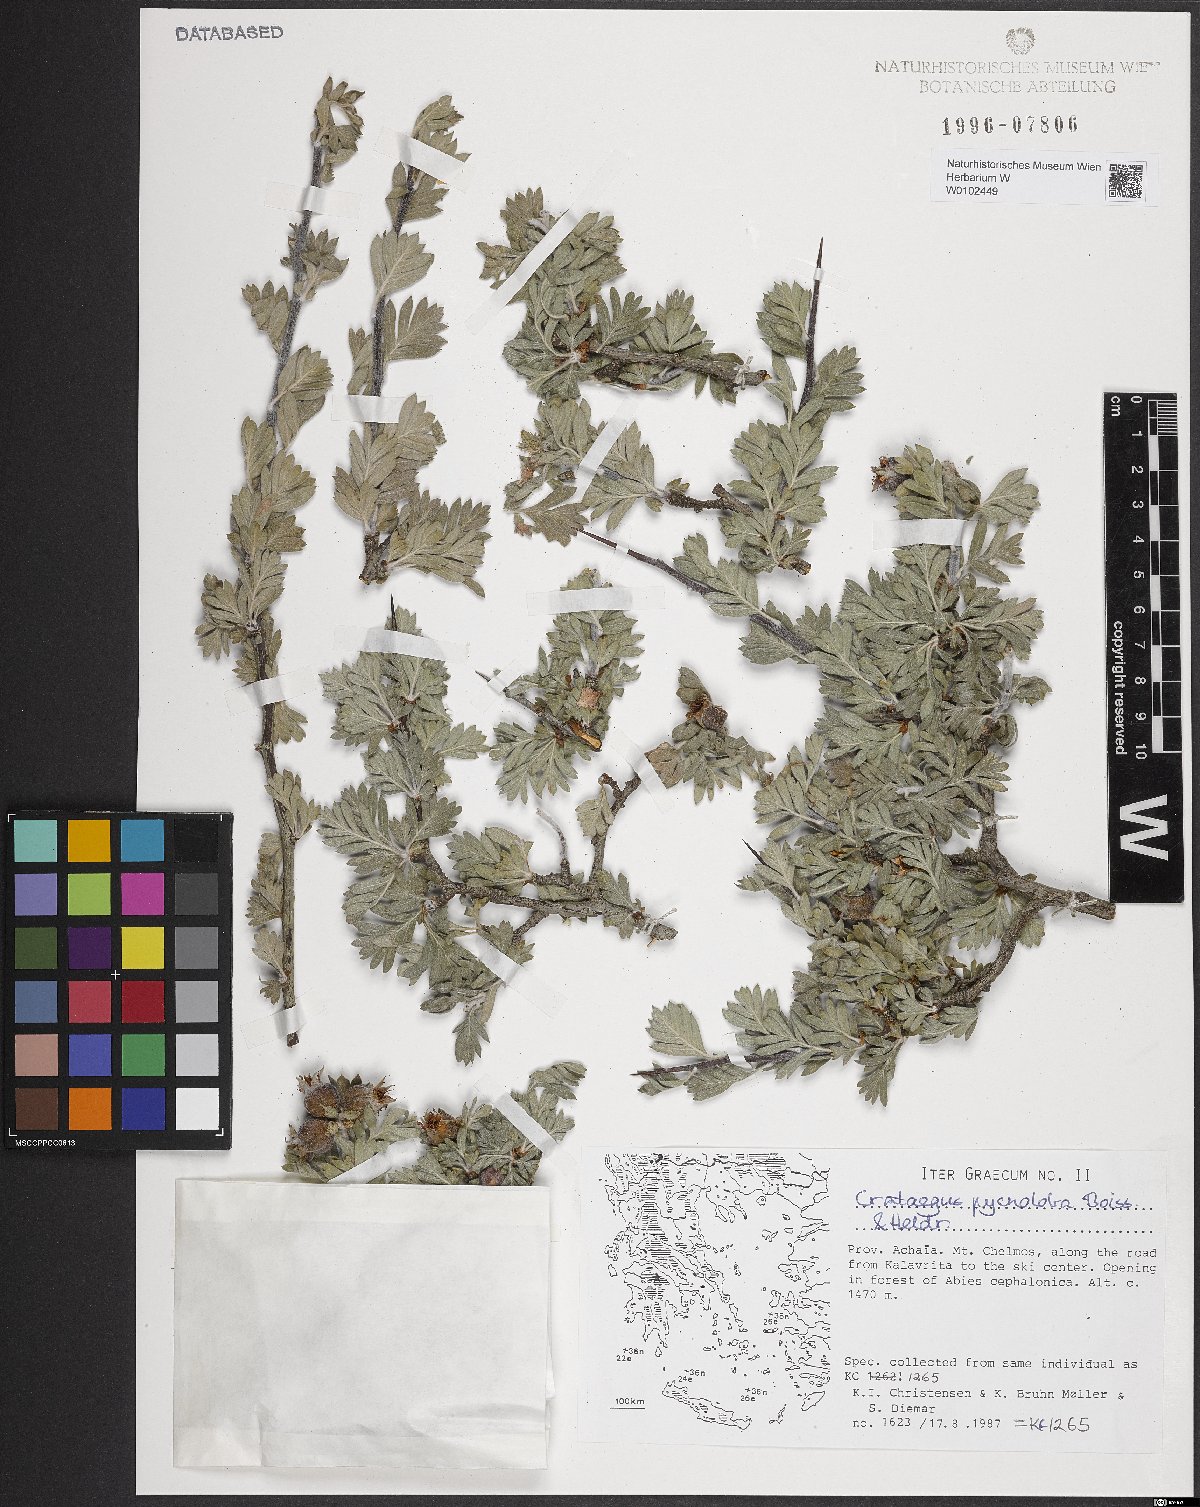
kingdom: Plantae
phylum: Tracheophyta
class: Magnoliopsida
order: Rosales
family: Rosaceae
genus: Crataegus
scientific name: Crataegus pycnoloba
